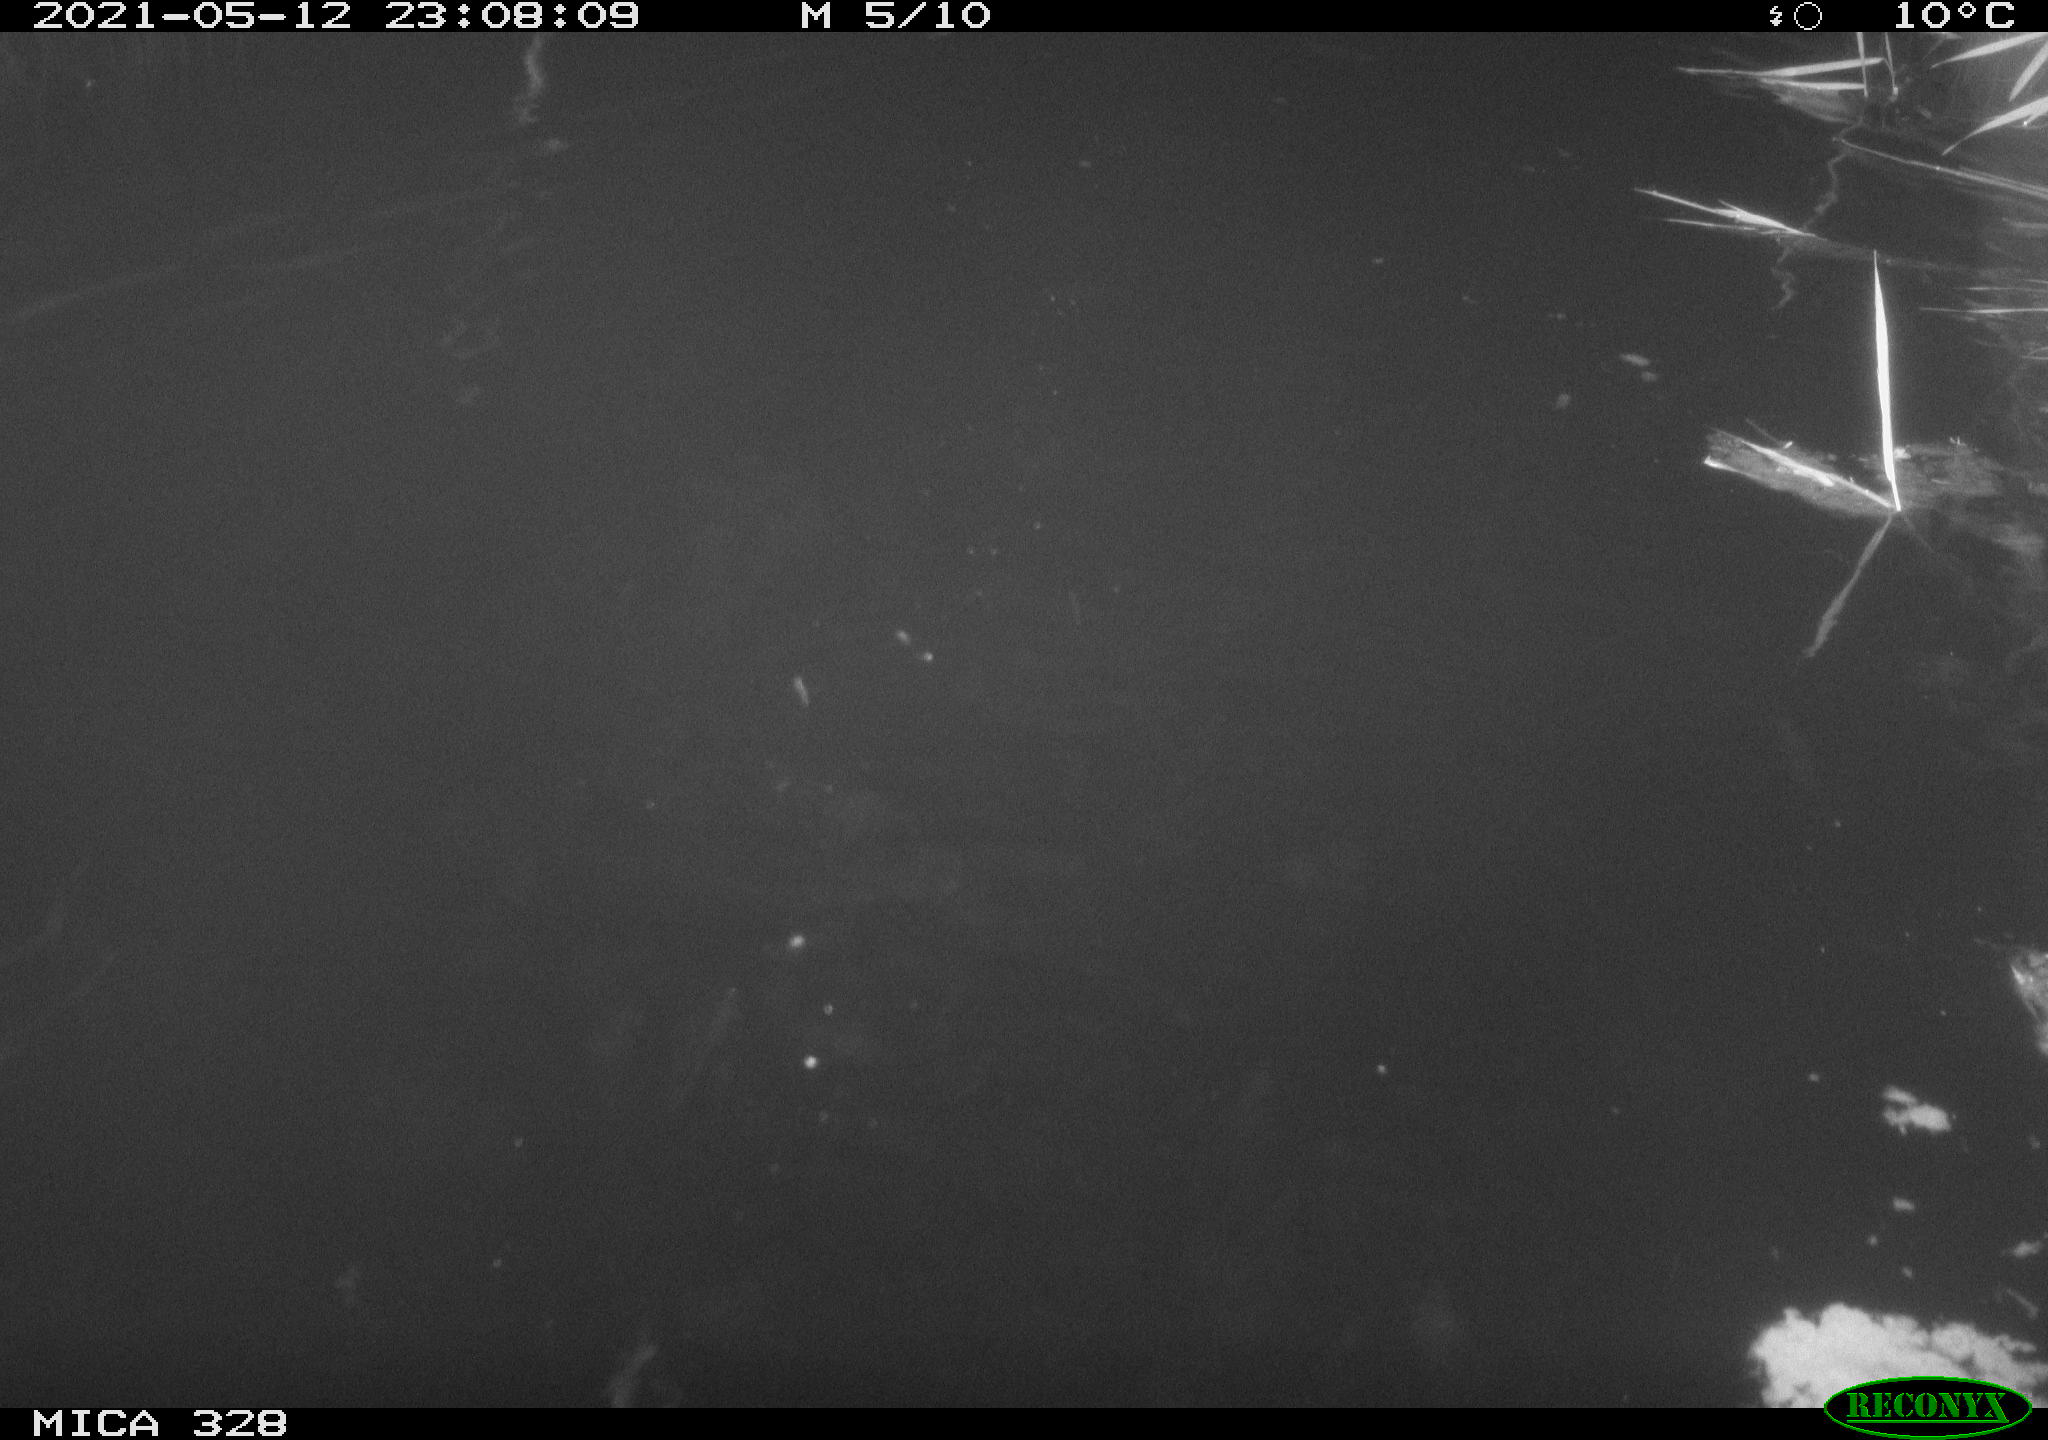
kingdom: Animalia
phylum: Chordata
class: Mammalia
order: Rodentia
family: Cricetidae
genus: Ondatra
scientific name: Ondatra zibethicus
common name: Muskrat
